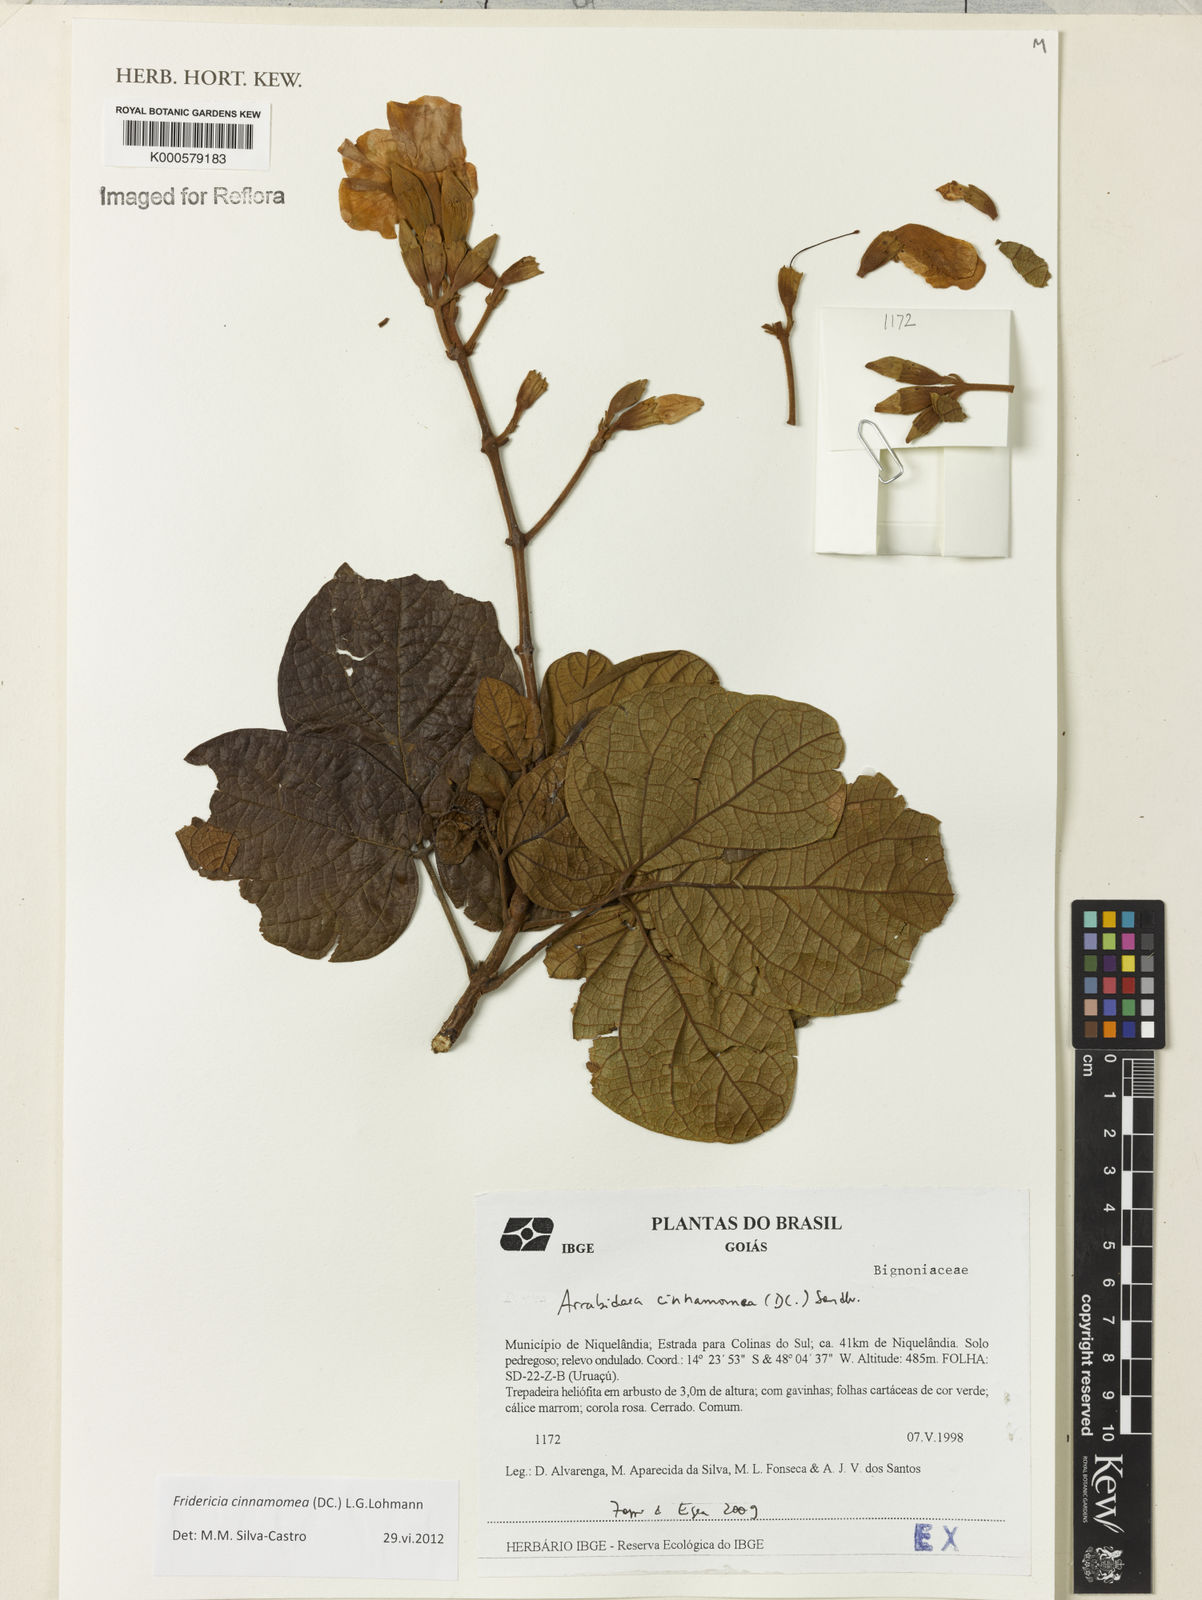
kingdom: Plantae
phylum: Tracheophyta
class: Magnoliopsida
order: Lamiales
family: Bignoniaceae
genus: Fridericia
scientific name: Fridericia cinnamomea
